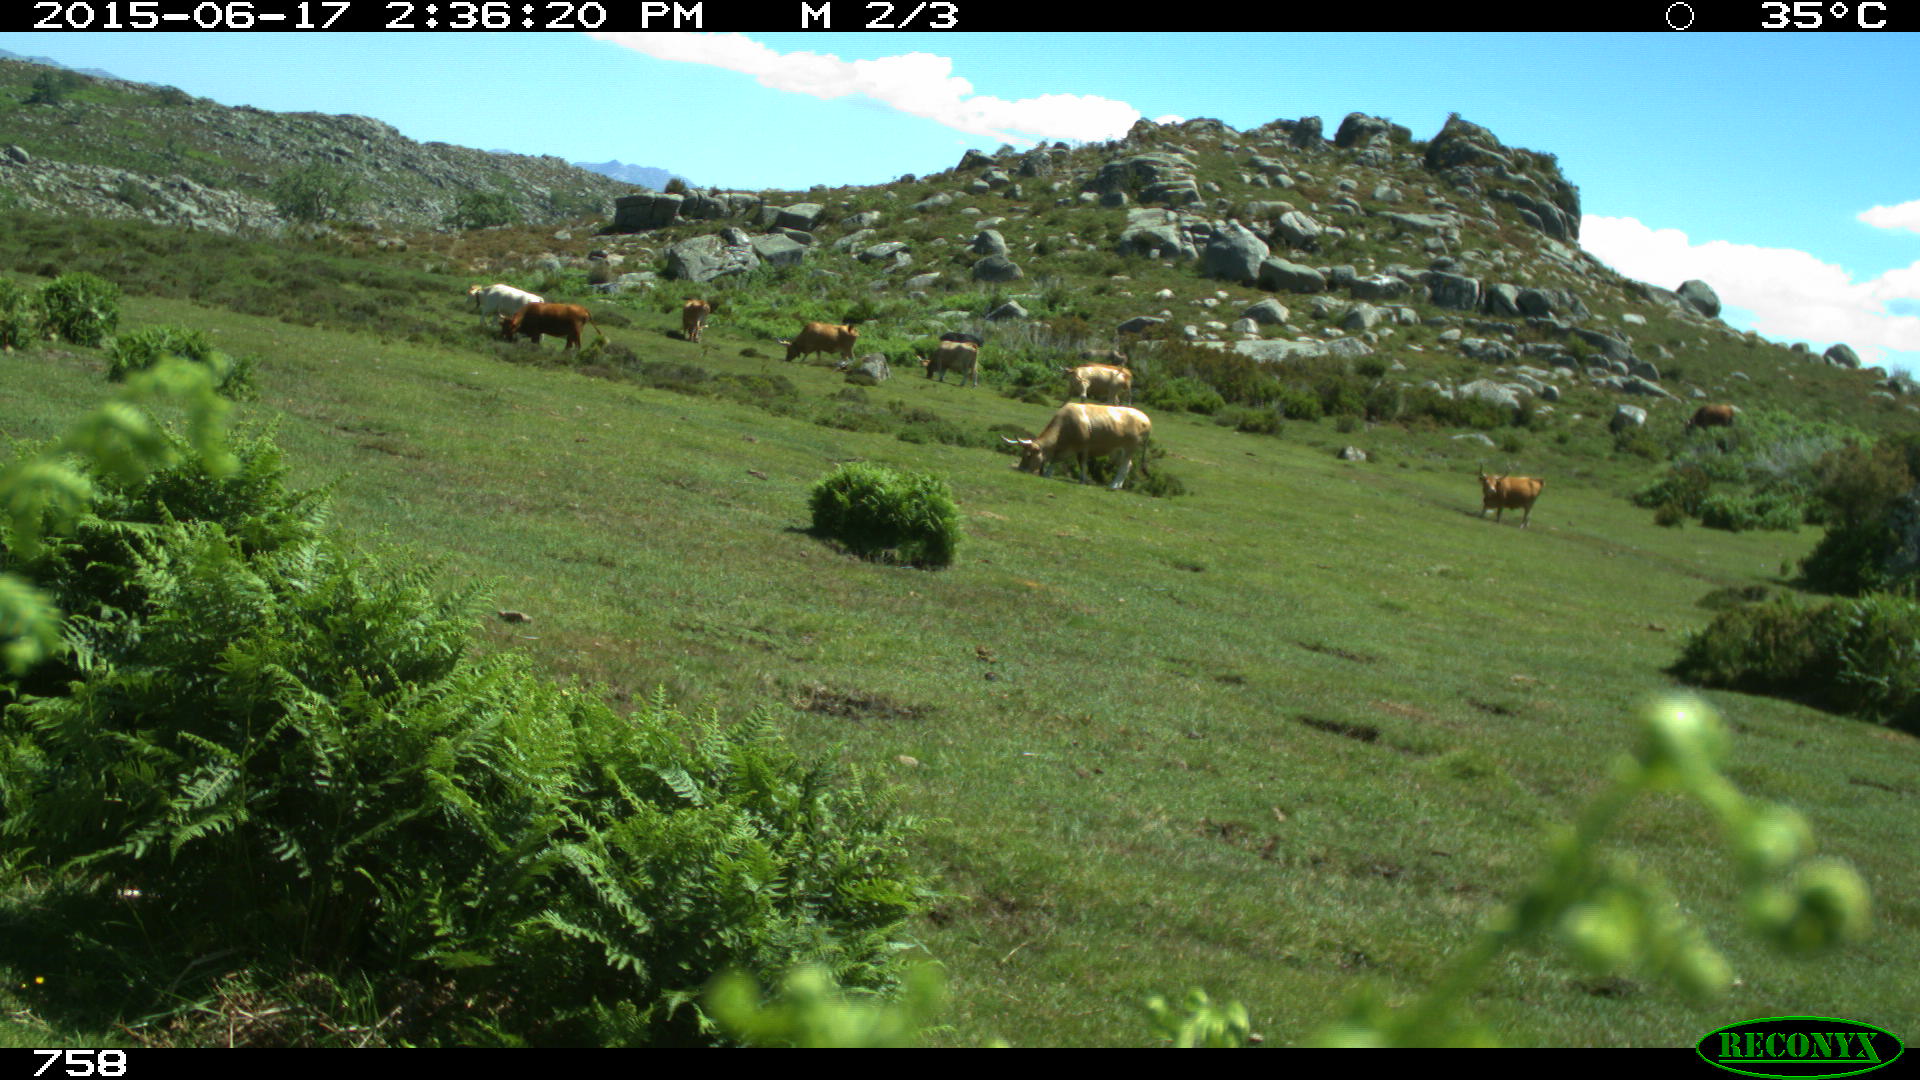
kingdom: Animalia
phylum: Chordata
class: Mammalia
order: Artiodactyla
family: Bovidae
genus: Bos
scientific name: Bos taurus
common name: Domesticated cattle
